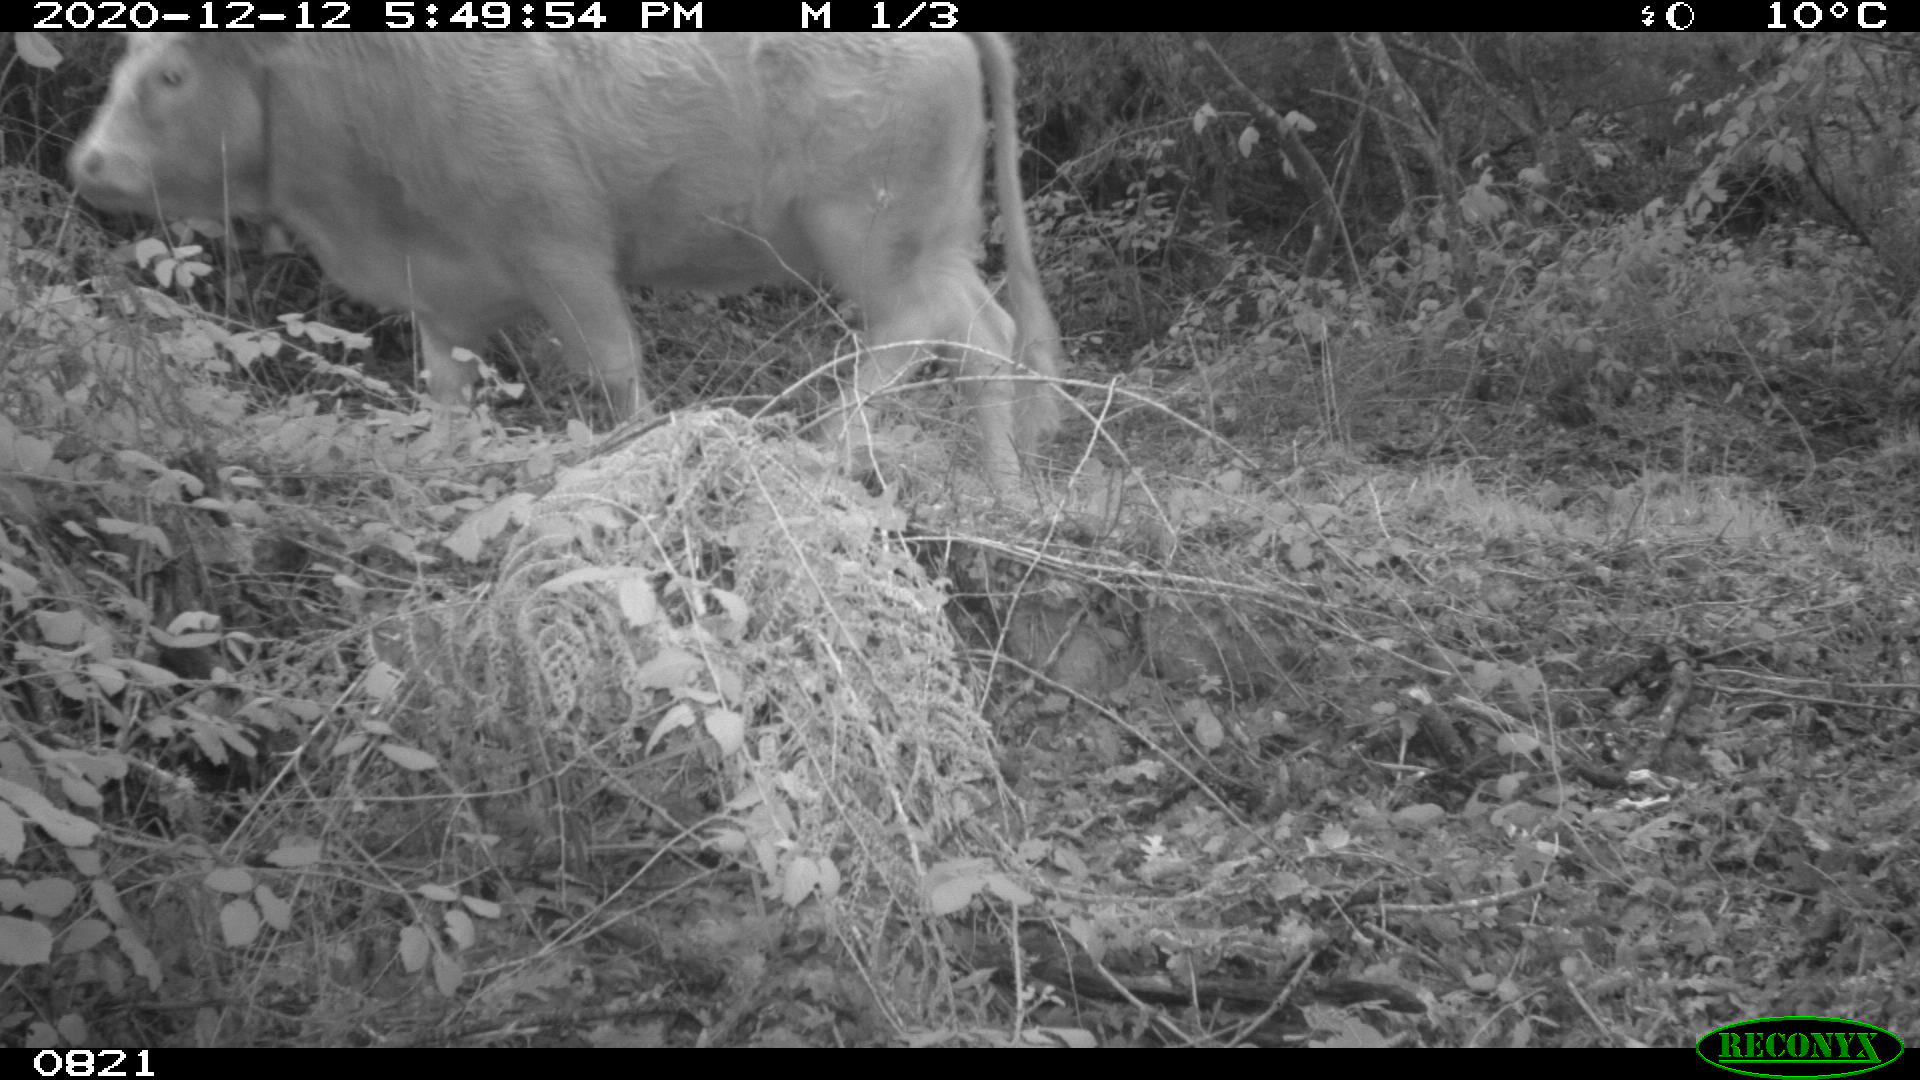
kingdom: Animalia
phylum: Chordata
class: Mammalia
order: Artiodactyla
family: Bovidae
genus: Bos
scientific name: Bos taurus
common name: Domesticated cattle
